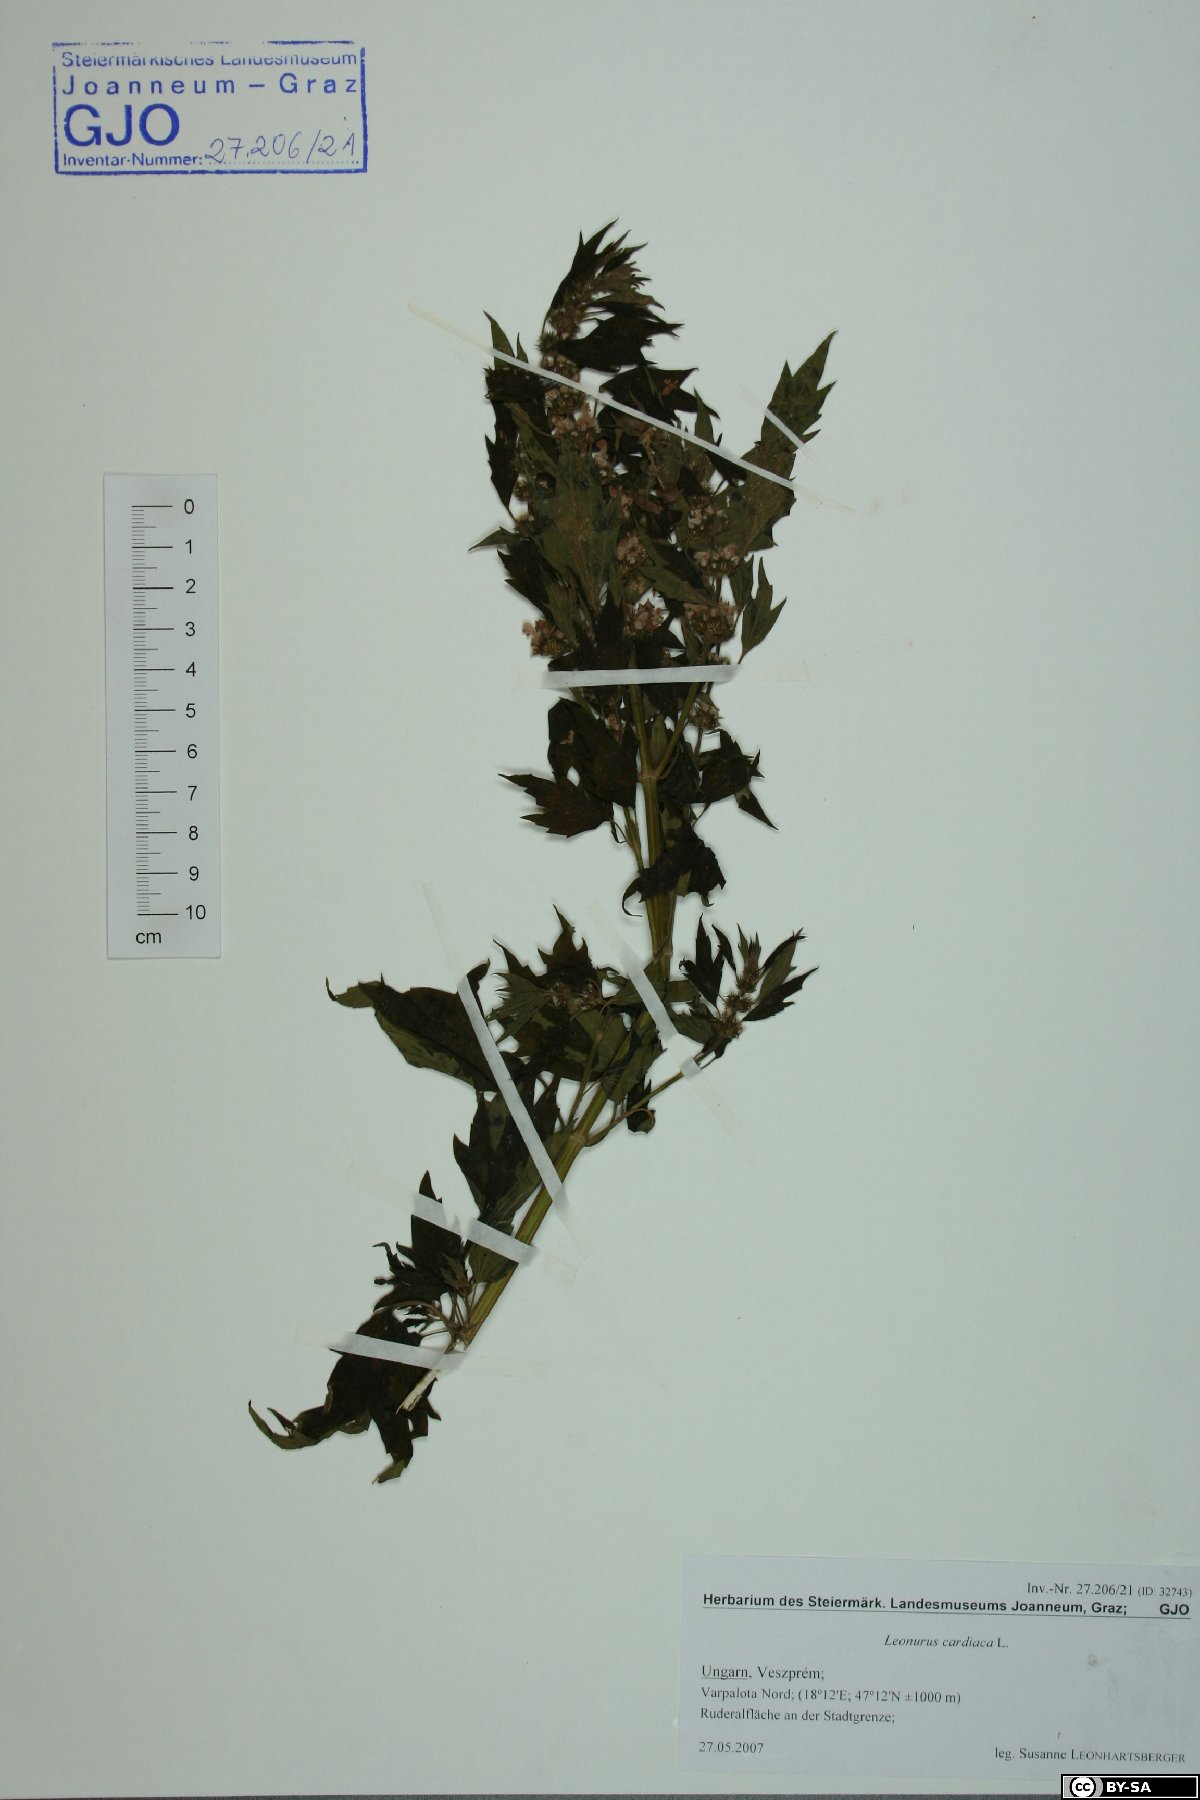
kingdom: Plantae
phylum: Tracheophyta
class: Magnoliopsida
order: Lamiales
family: Lamiaceae
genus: Leonurus
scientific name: Leonurus cardiaca
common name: Motherwort
